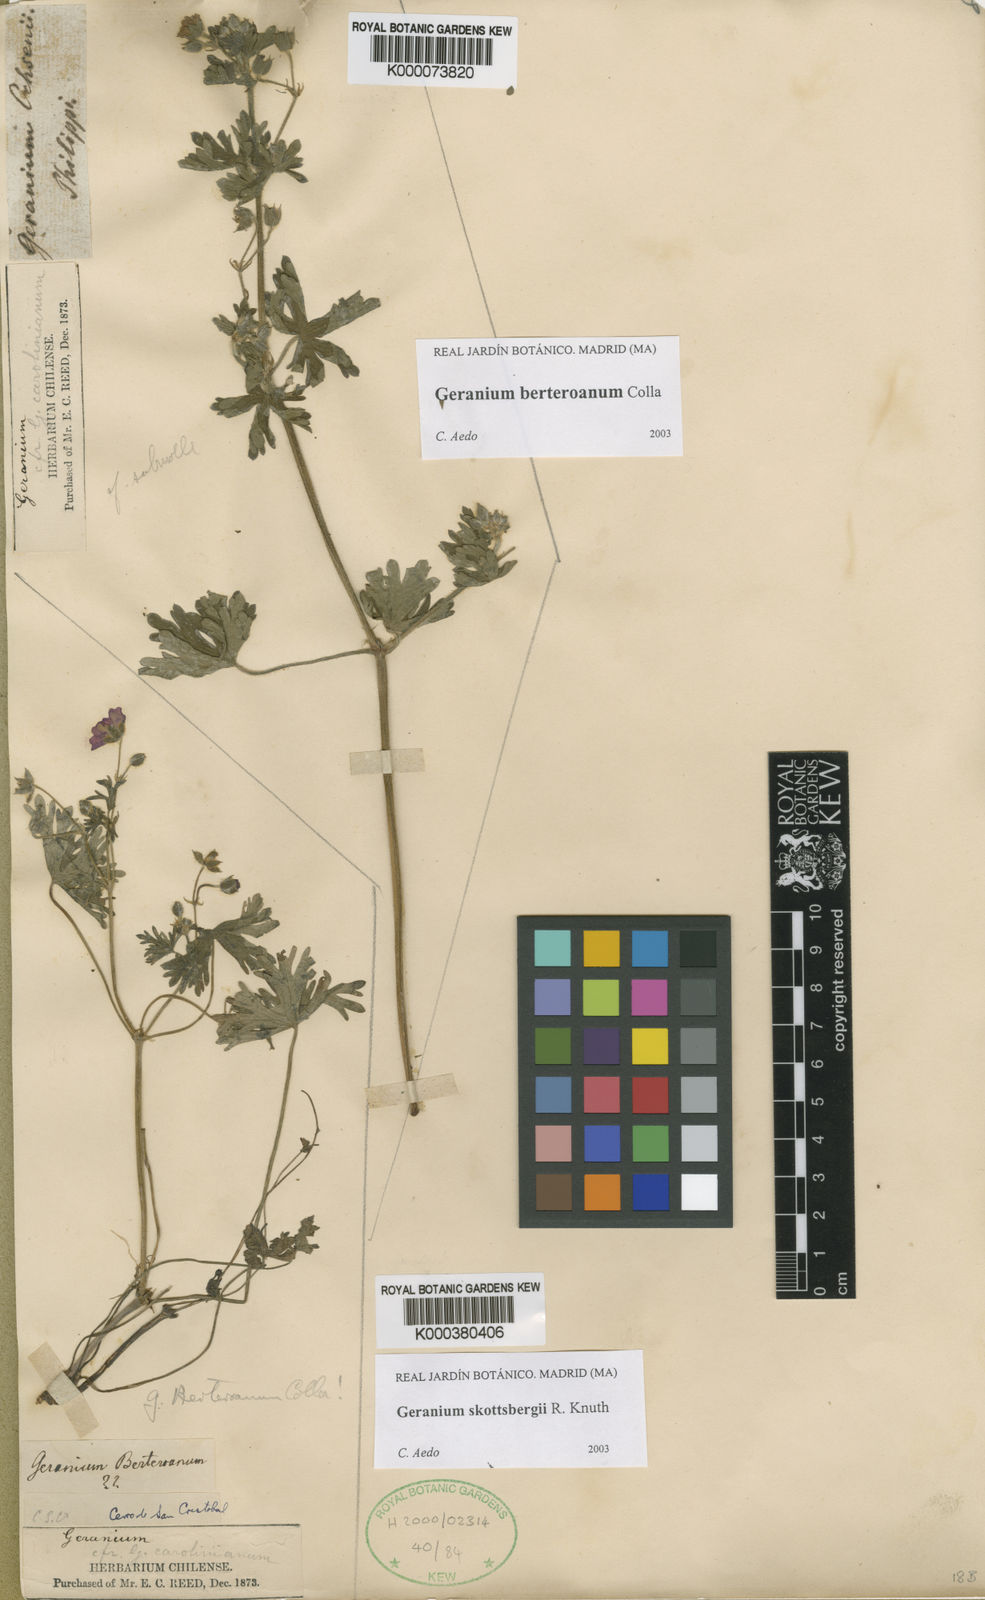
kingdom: Plantae
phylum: Tracheophyta
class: Magnoliopsida
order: Geraniales
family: Geraniaceae
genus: Geranium
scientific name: Geranium
